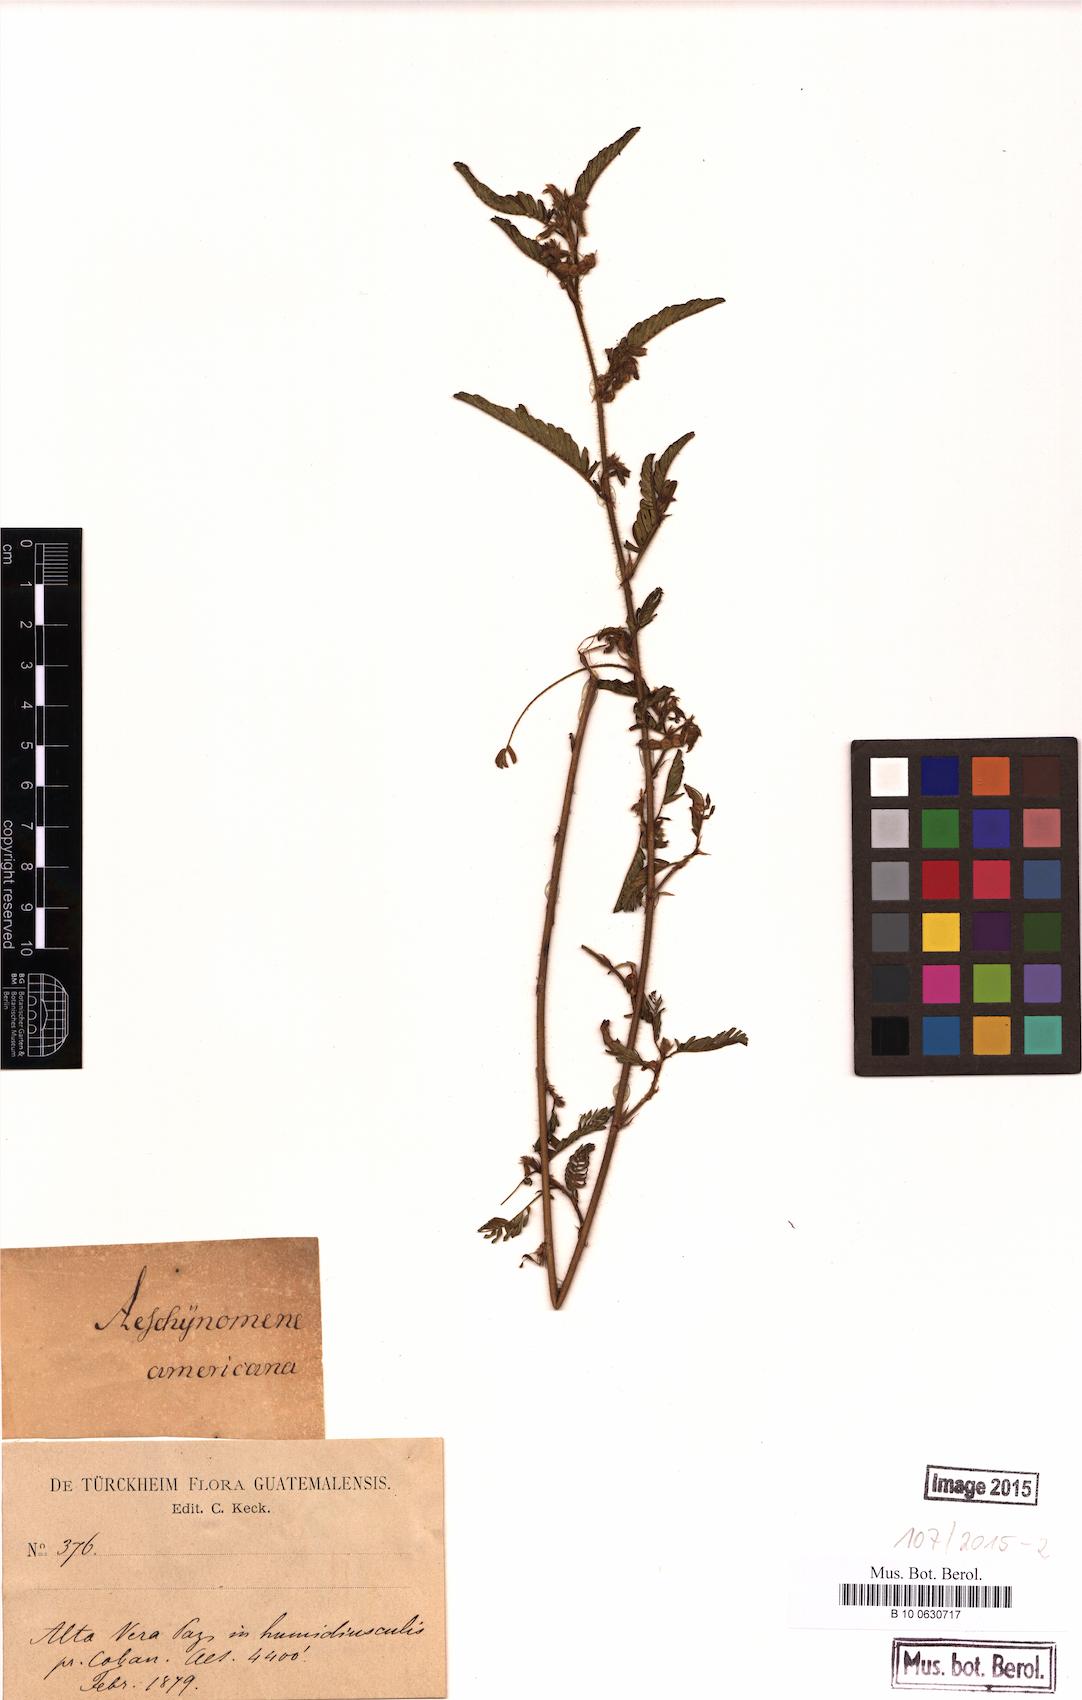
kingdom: Plantae
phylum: Tracheophyta
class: Magnoliopsida
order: Fabales
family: Fabaceae
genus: Aeschynomene
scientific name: Aeschynomene americana
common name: Joint-vetch
